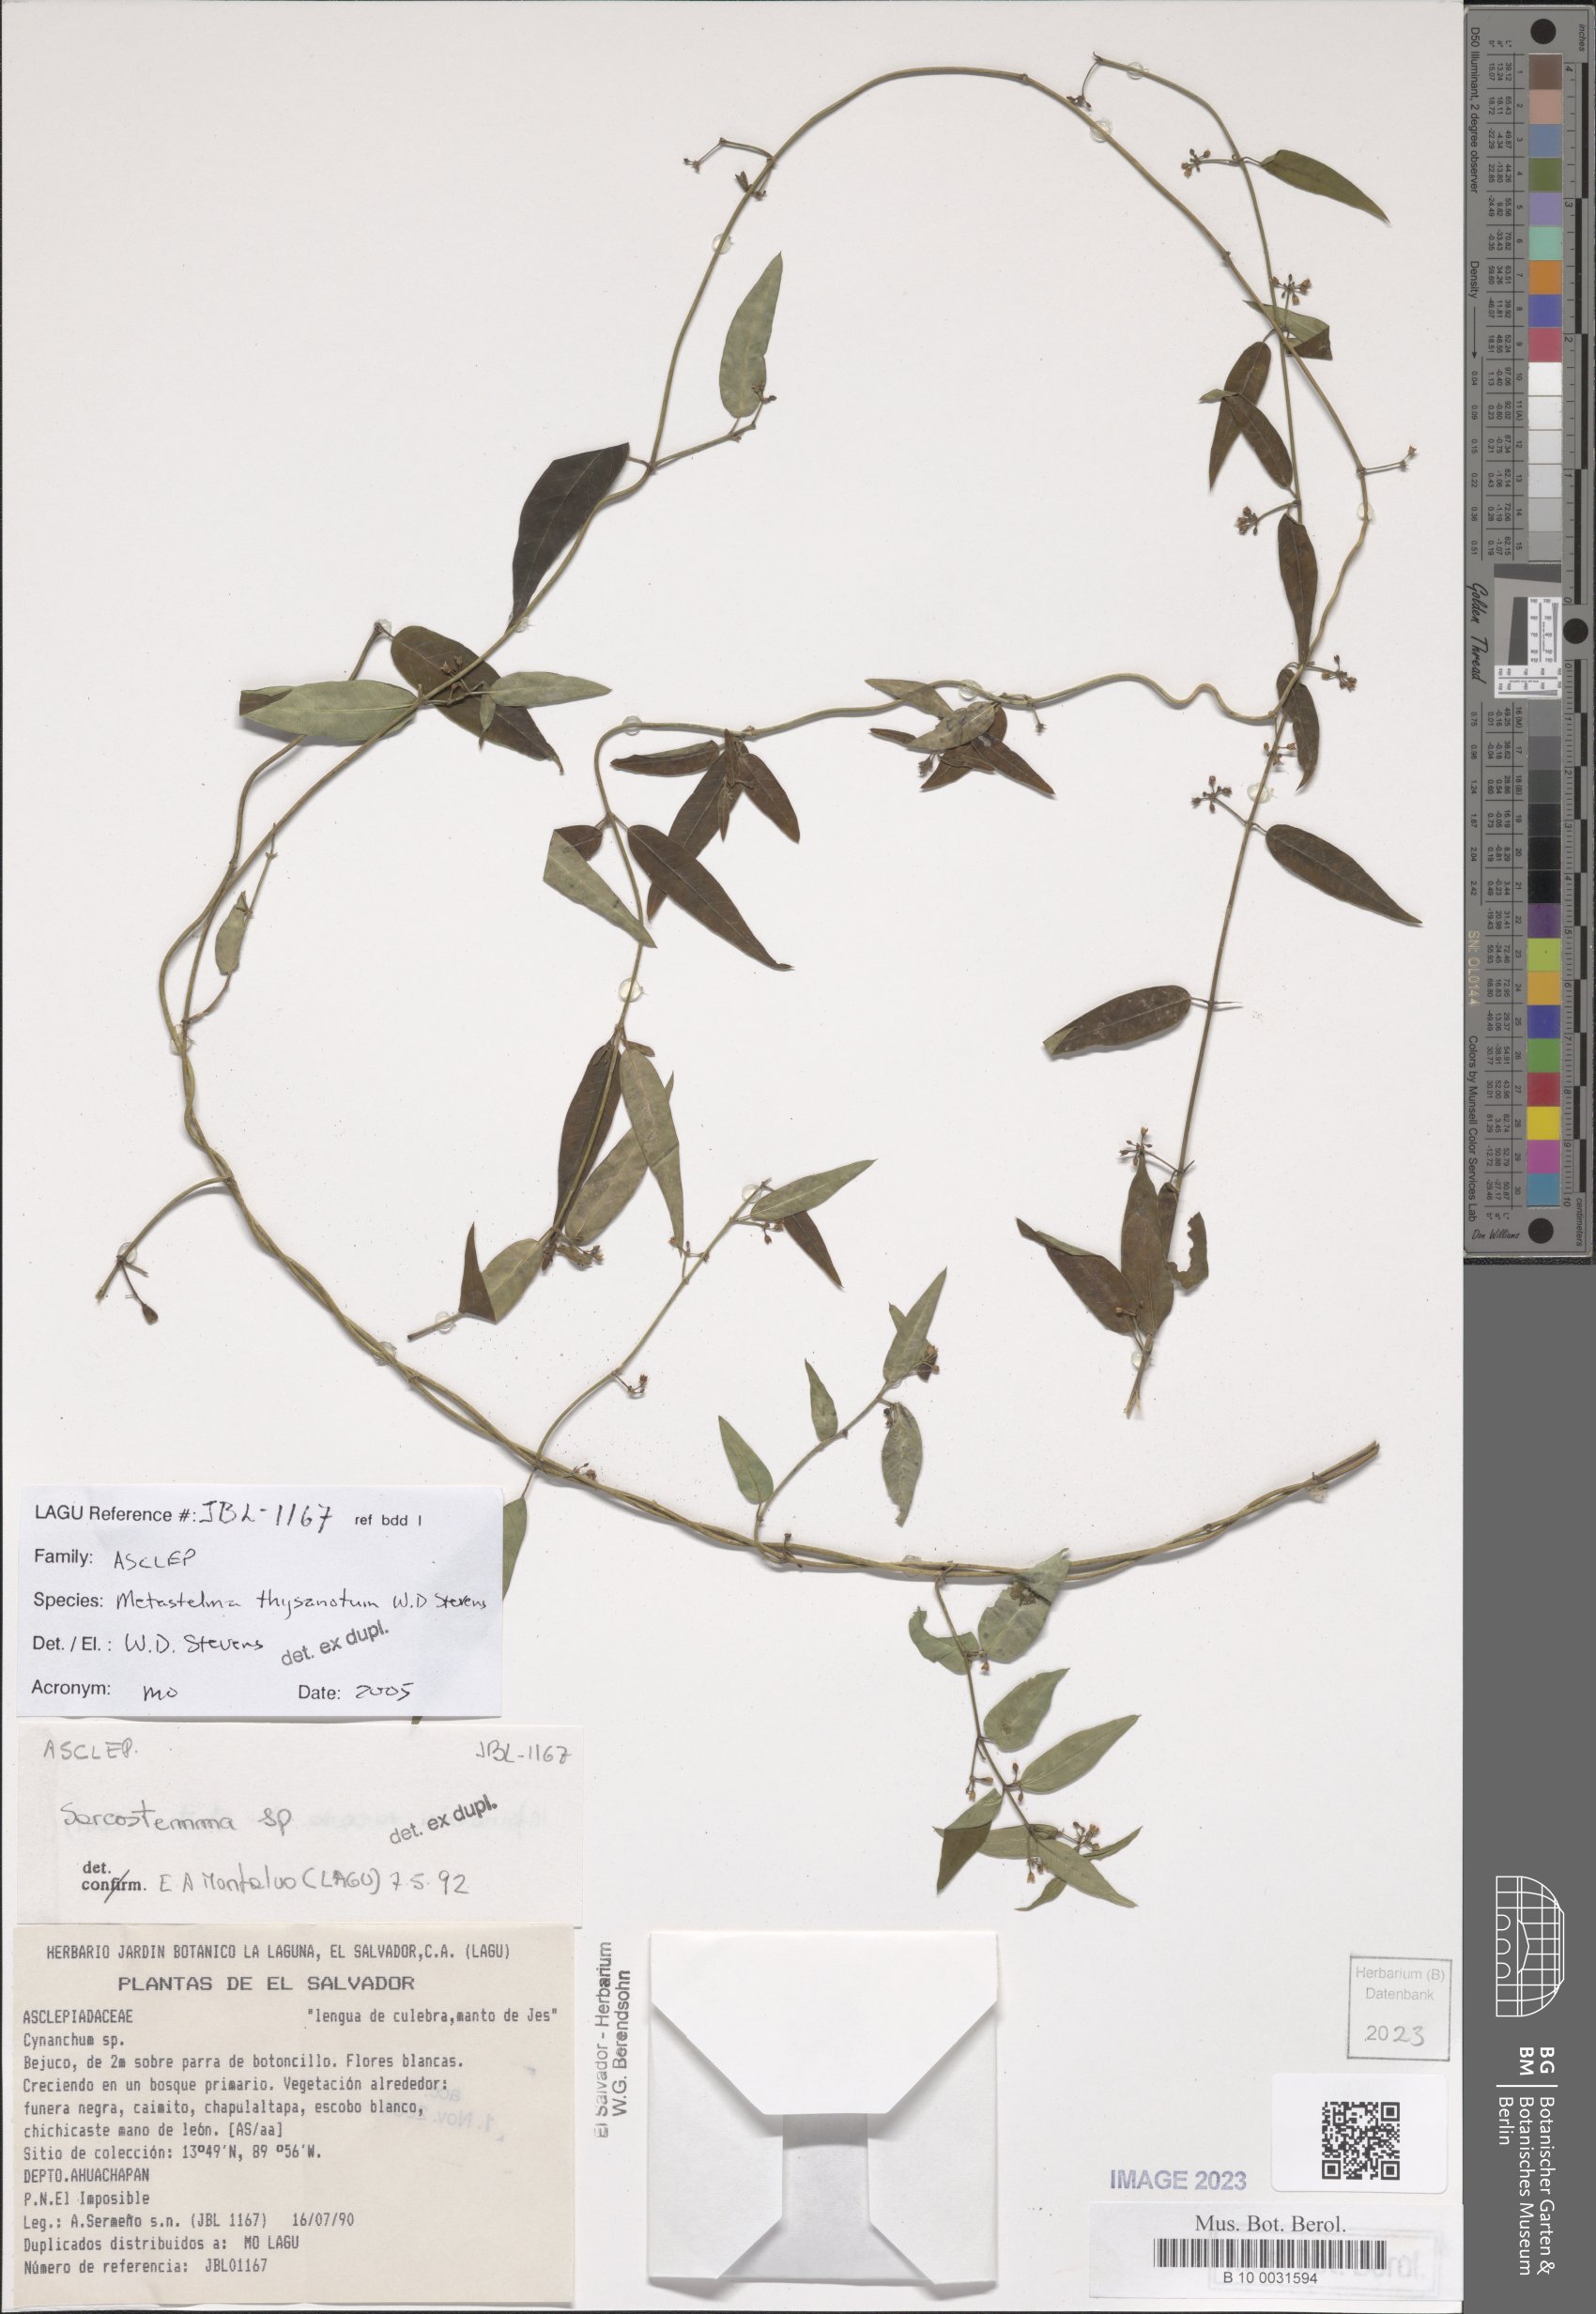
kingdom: Plantae
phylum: Tracheophyta
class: Magnoliopsida
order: Gentianales
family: Apocynaceae
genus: Metastelma
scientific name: Metastelma thysanotum
